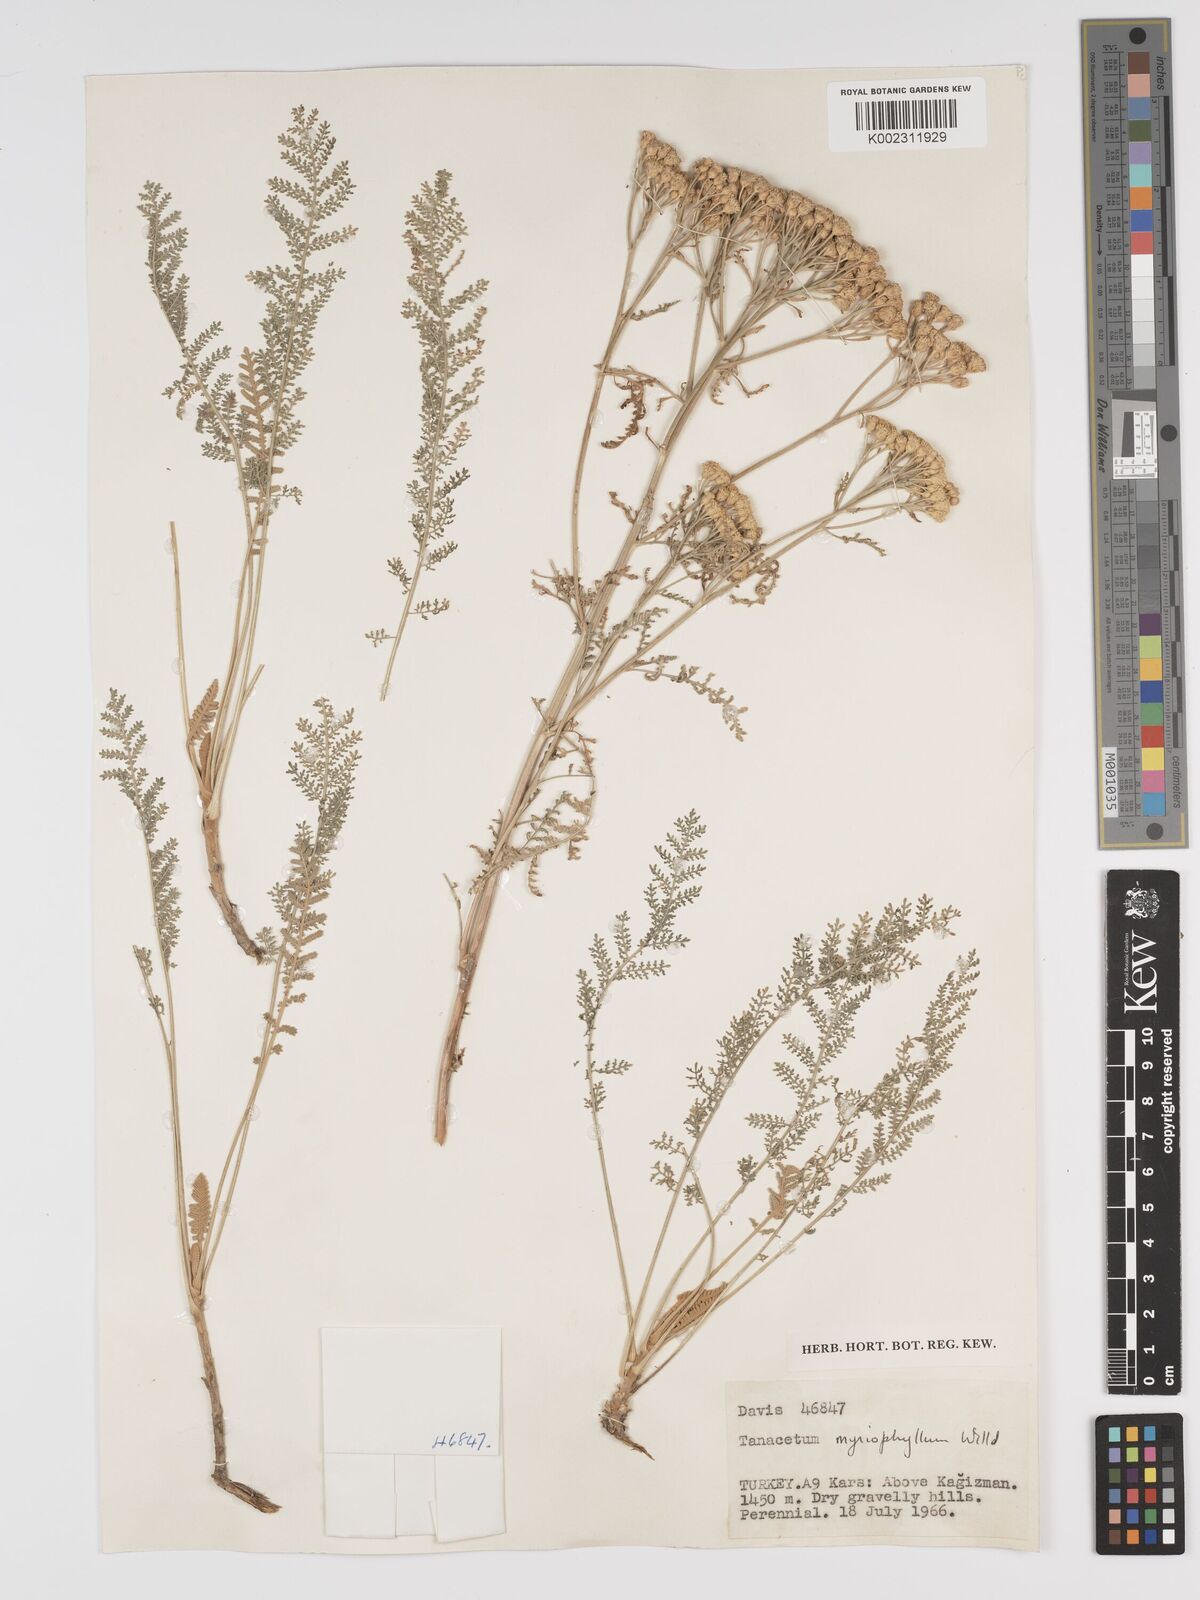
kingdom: Plantae
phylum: Tracheophyta
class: Magnoliopsida
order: Asterales
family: Asteraceae
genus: Tanacetum
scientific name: Tanacetum polycephalum
